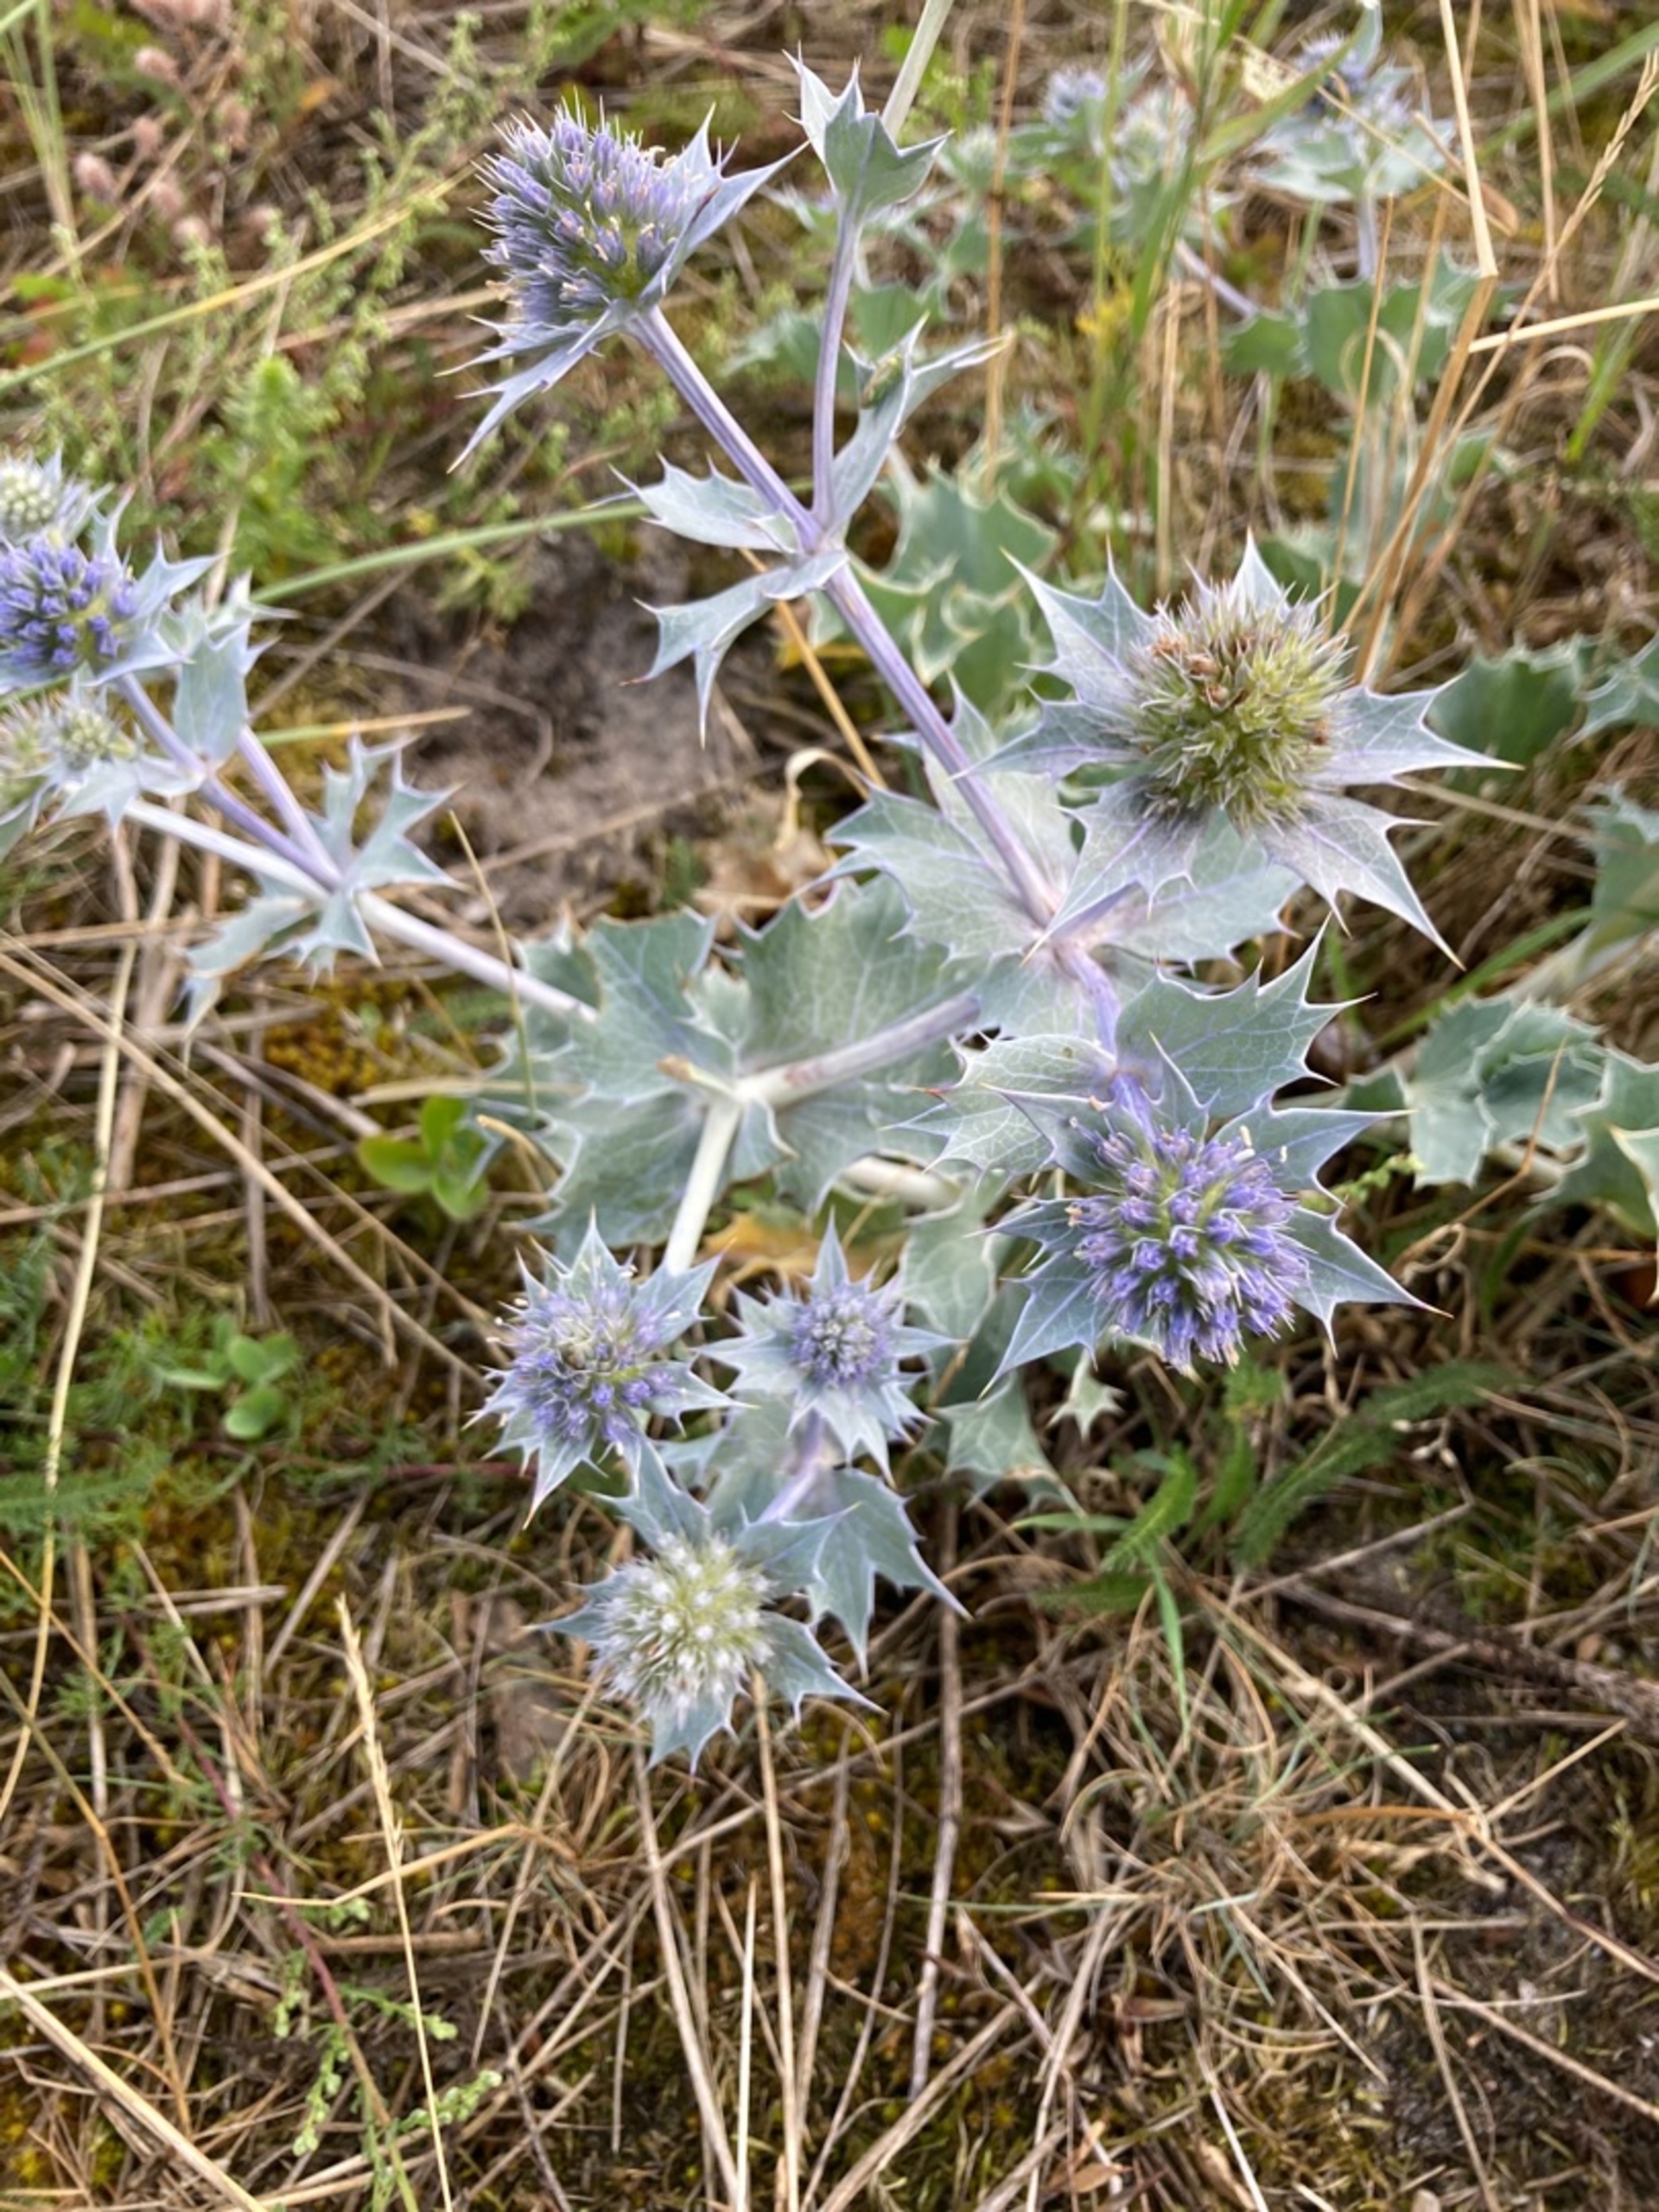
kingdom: Plantae
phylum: Tracheophyta
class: Magnoliopsida
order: Apiales
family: Apiaceae
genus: Eryngium
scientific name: Eryngium maritimum
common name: Strand-mandstro
